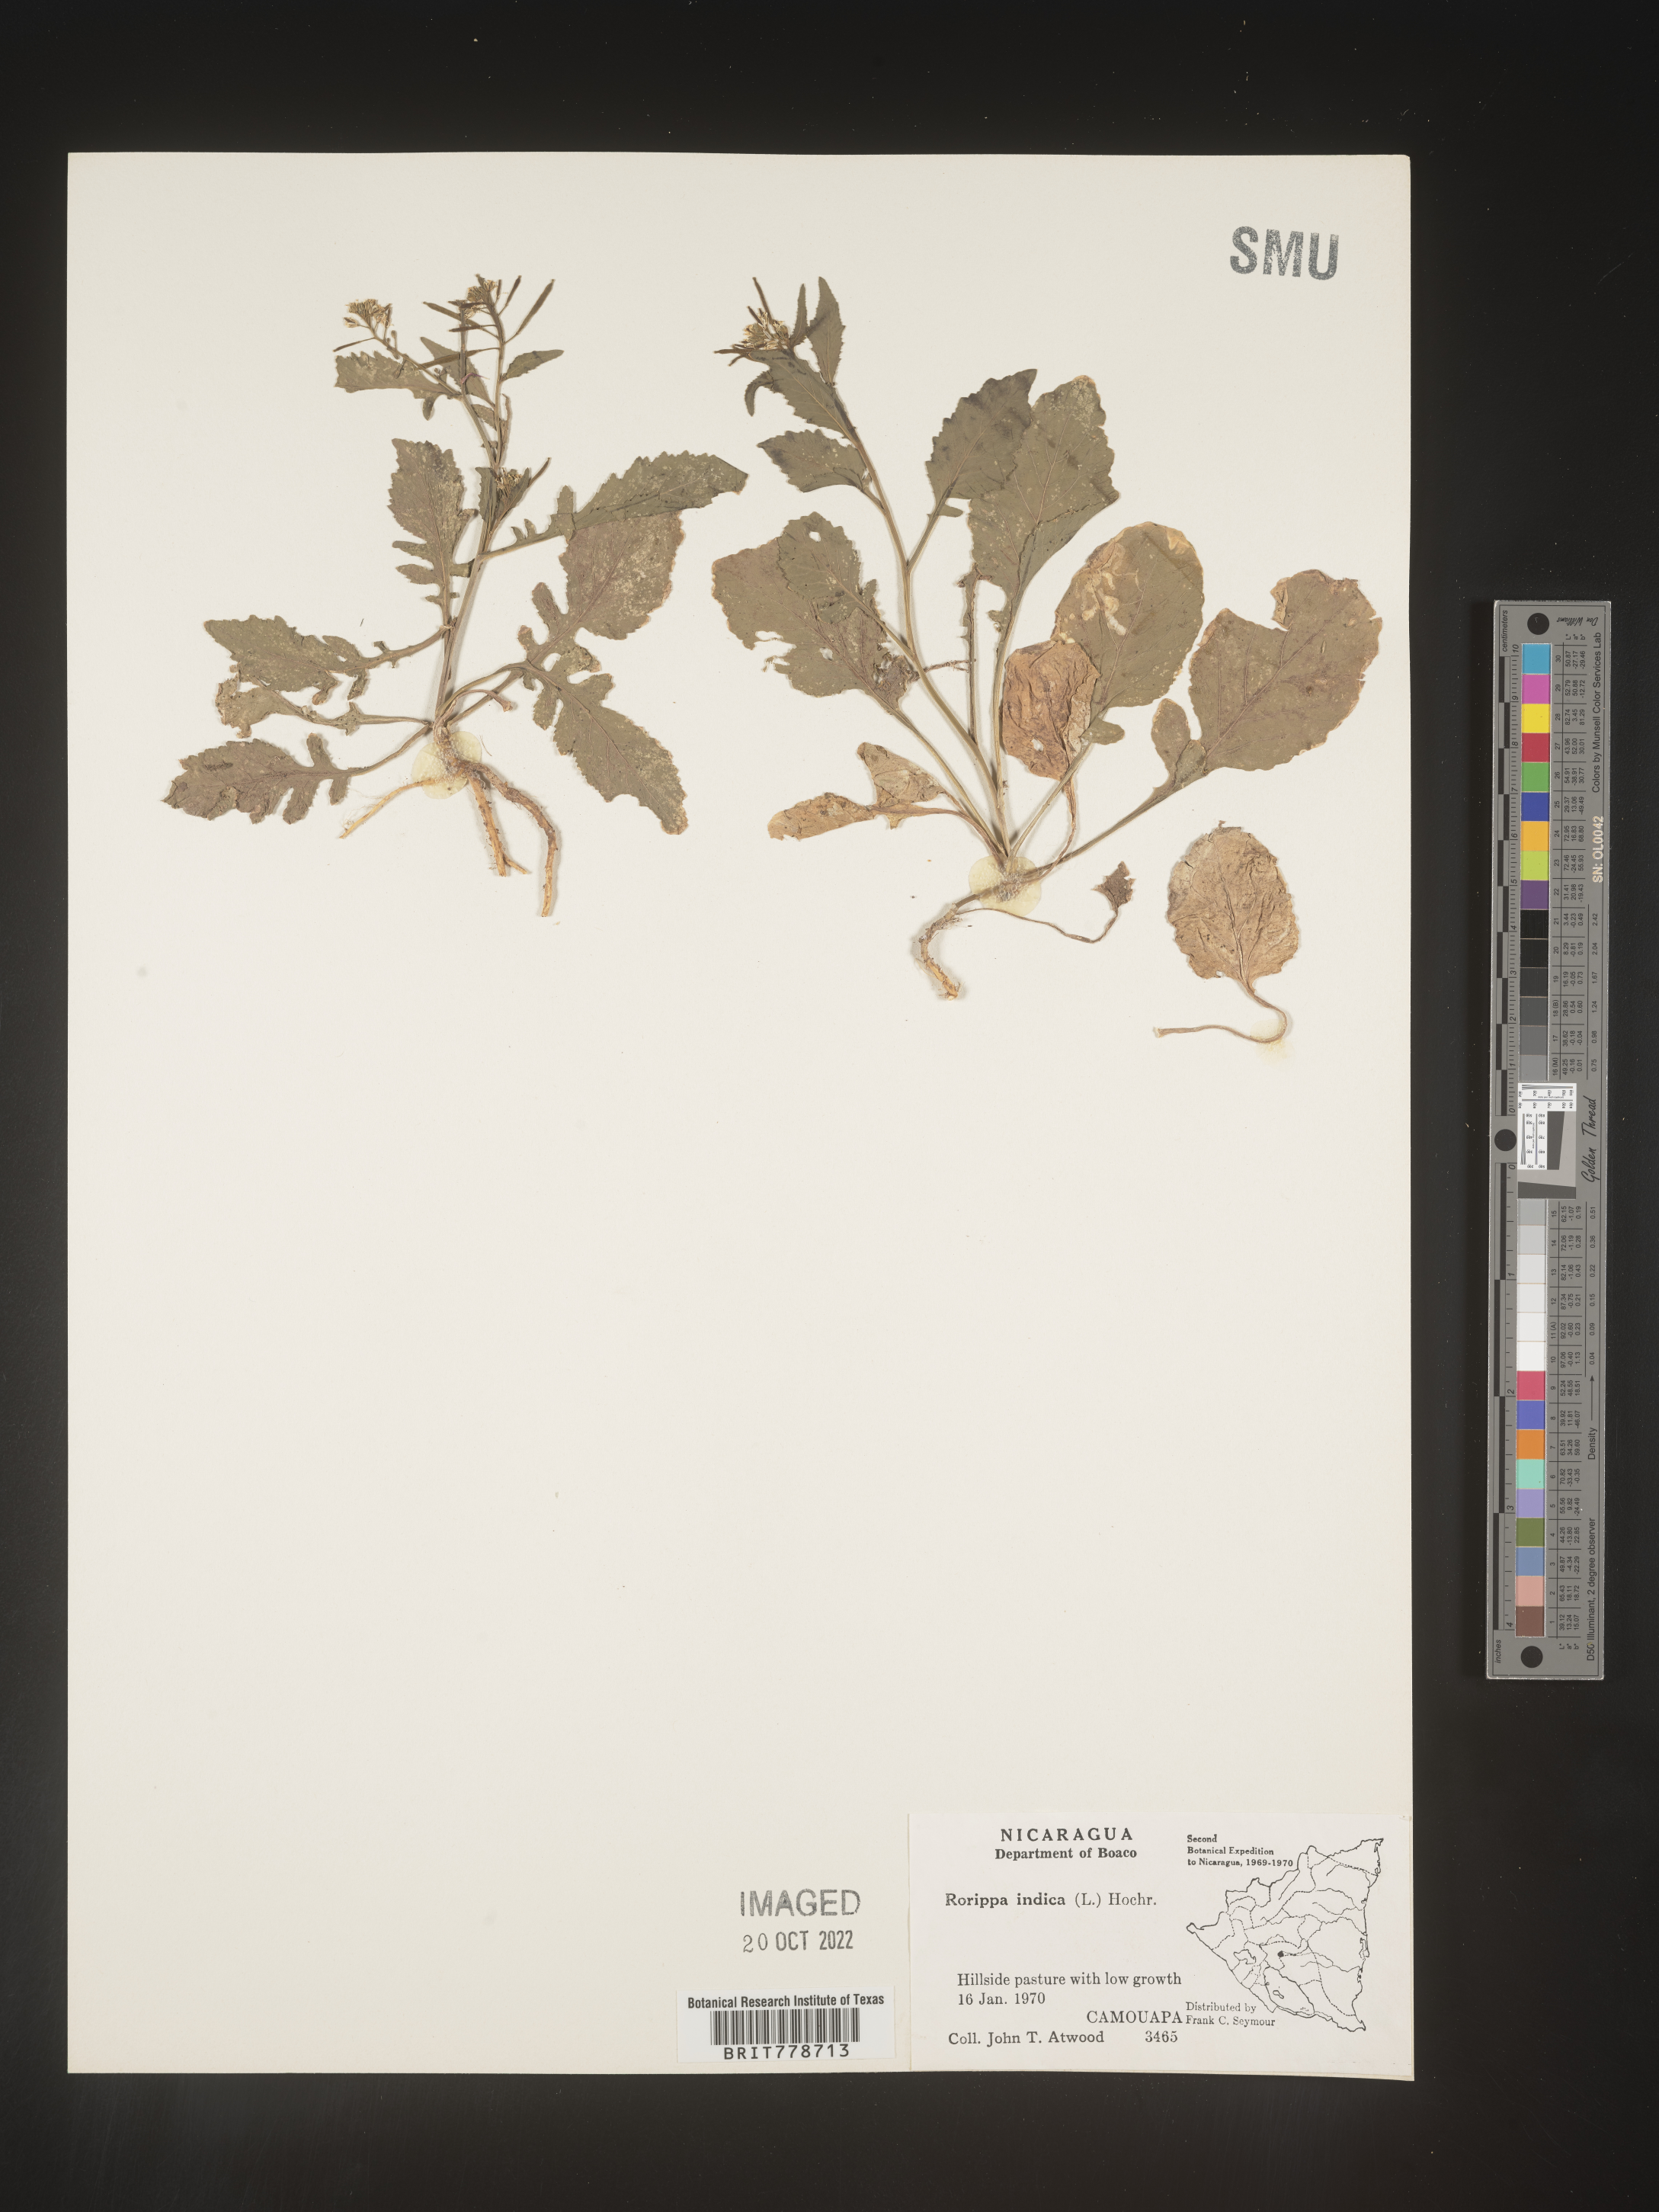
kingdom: Plantae
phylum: Tracheophyta
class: Magnoliopsida
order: Brassicales
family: Brassicaceae
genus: Rorippa
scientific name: Rorippa
